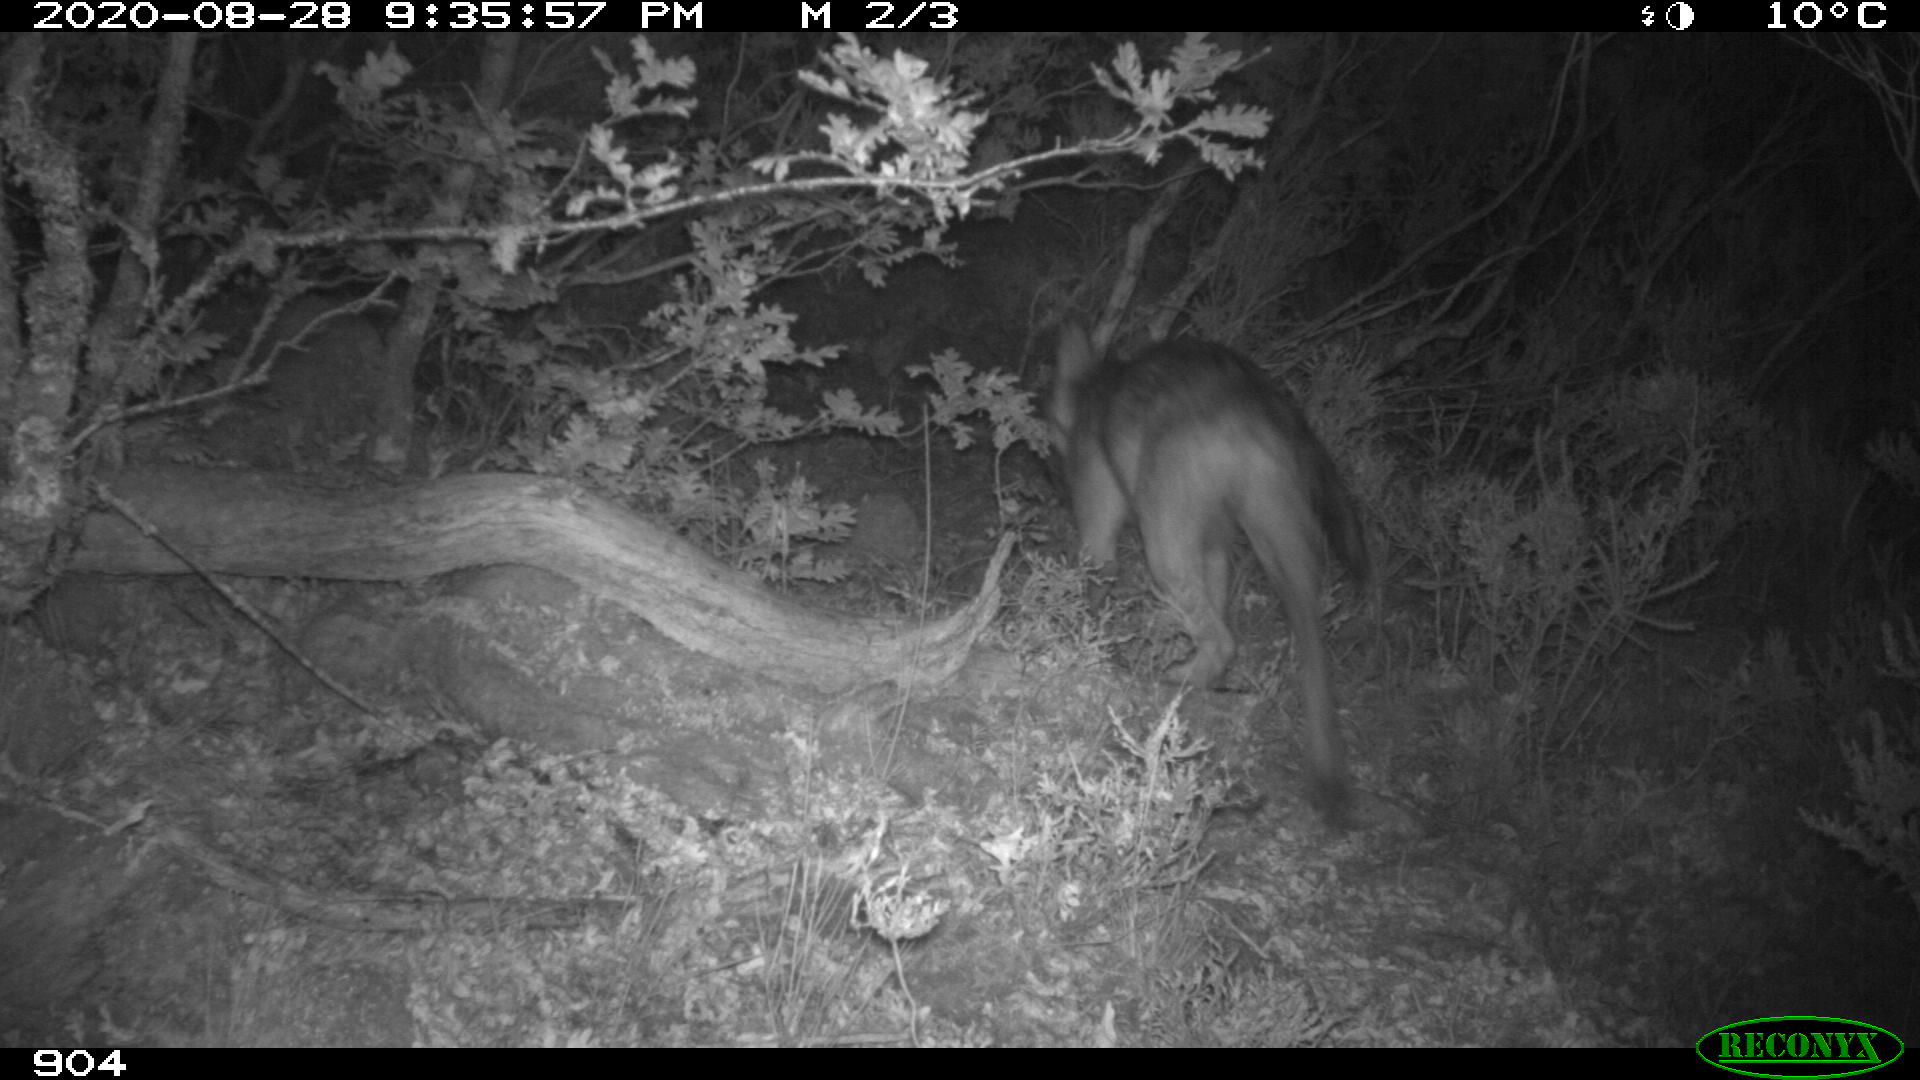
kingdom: Animalia
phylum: Chordata
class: Mammalia
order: Carnivora
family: Canidae
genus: Canis
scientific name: Canis lupus
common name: Gray wolf
